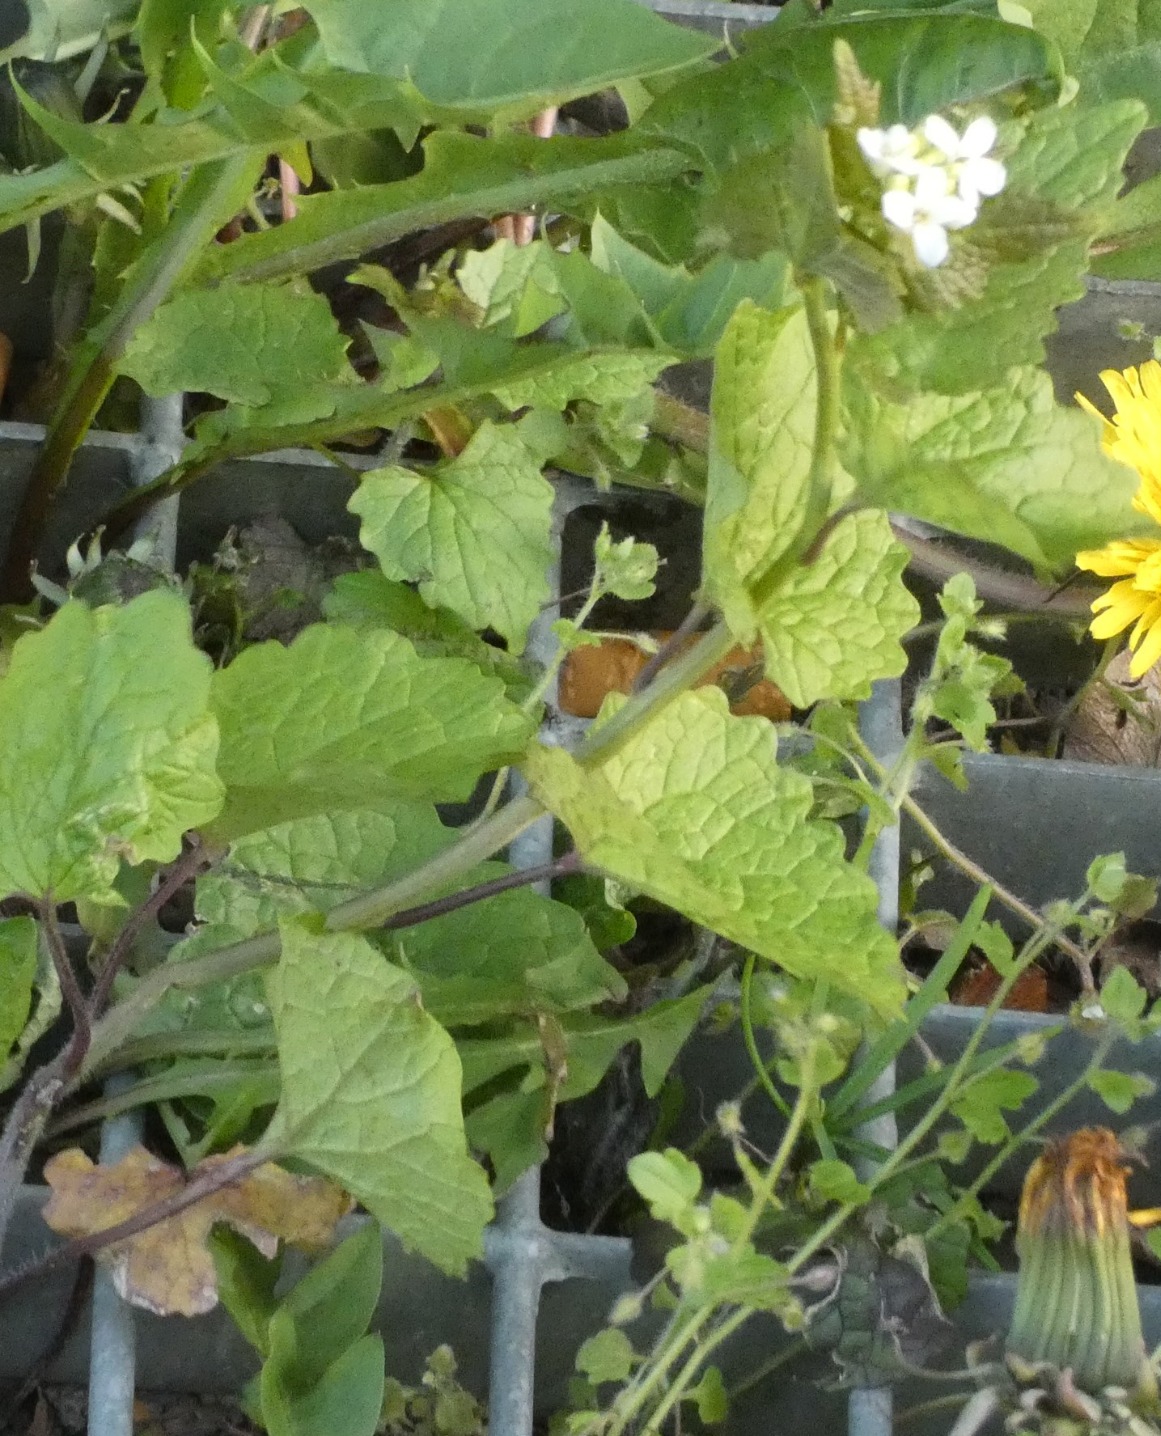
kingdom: Plantae
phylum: Tracheophyta
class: Magnoliopsida
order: Brassicales
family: Brassicaceae
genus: Alliaria
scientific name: Alliaria petiolata
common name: Løgkarse
